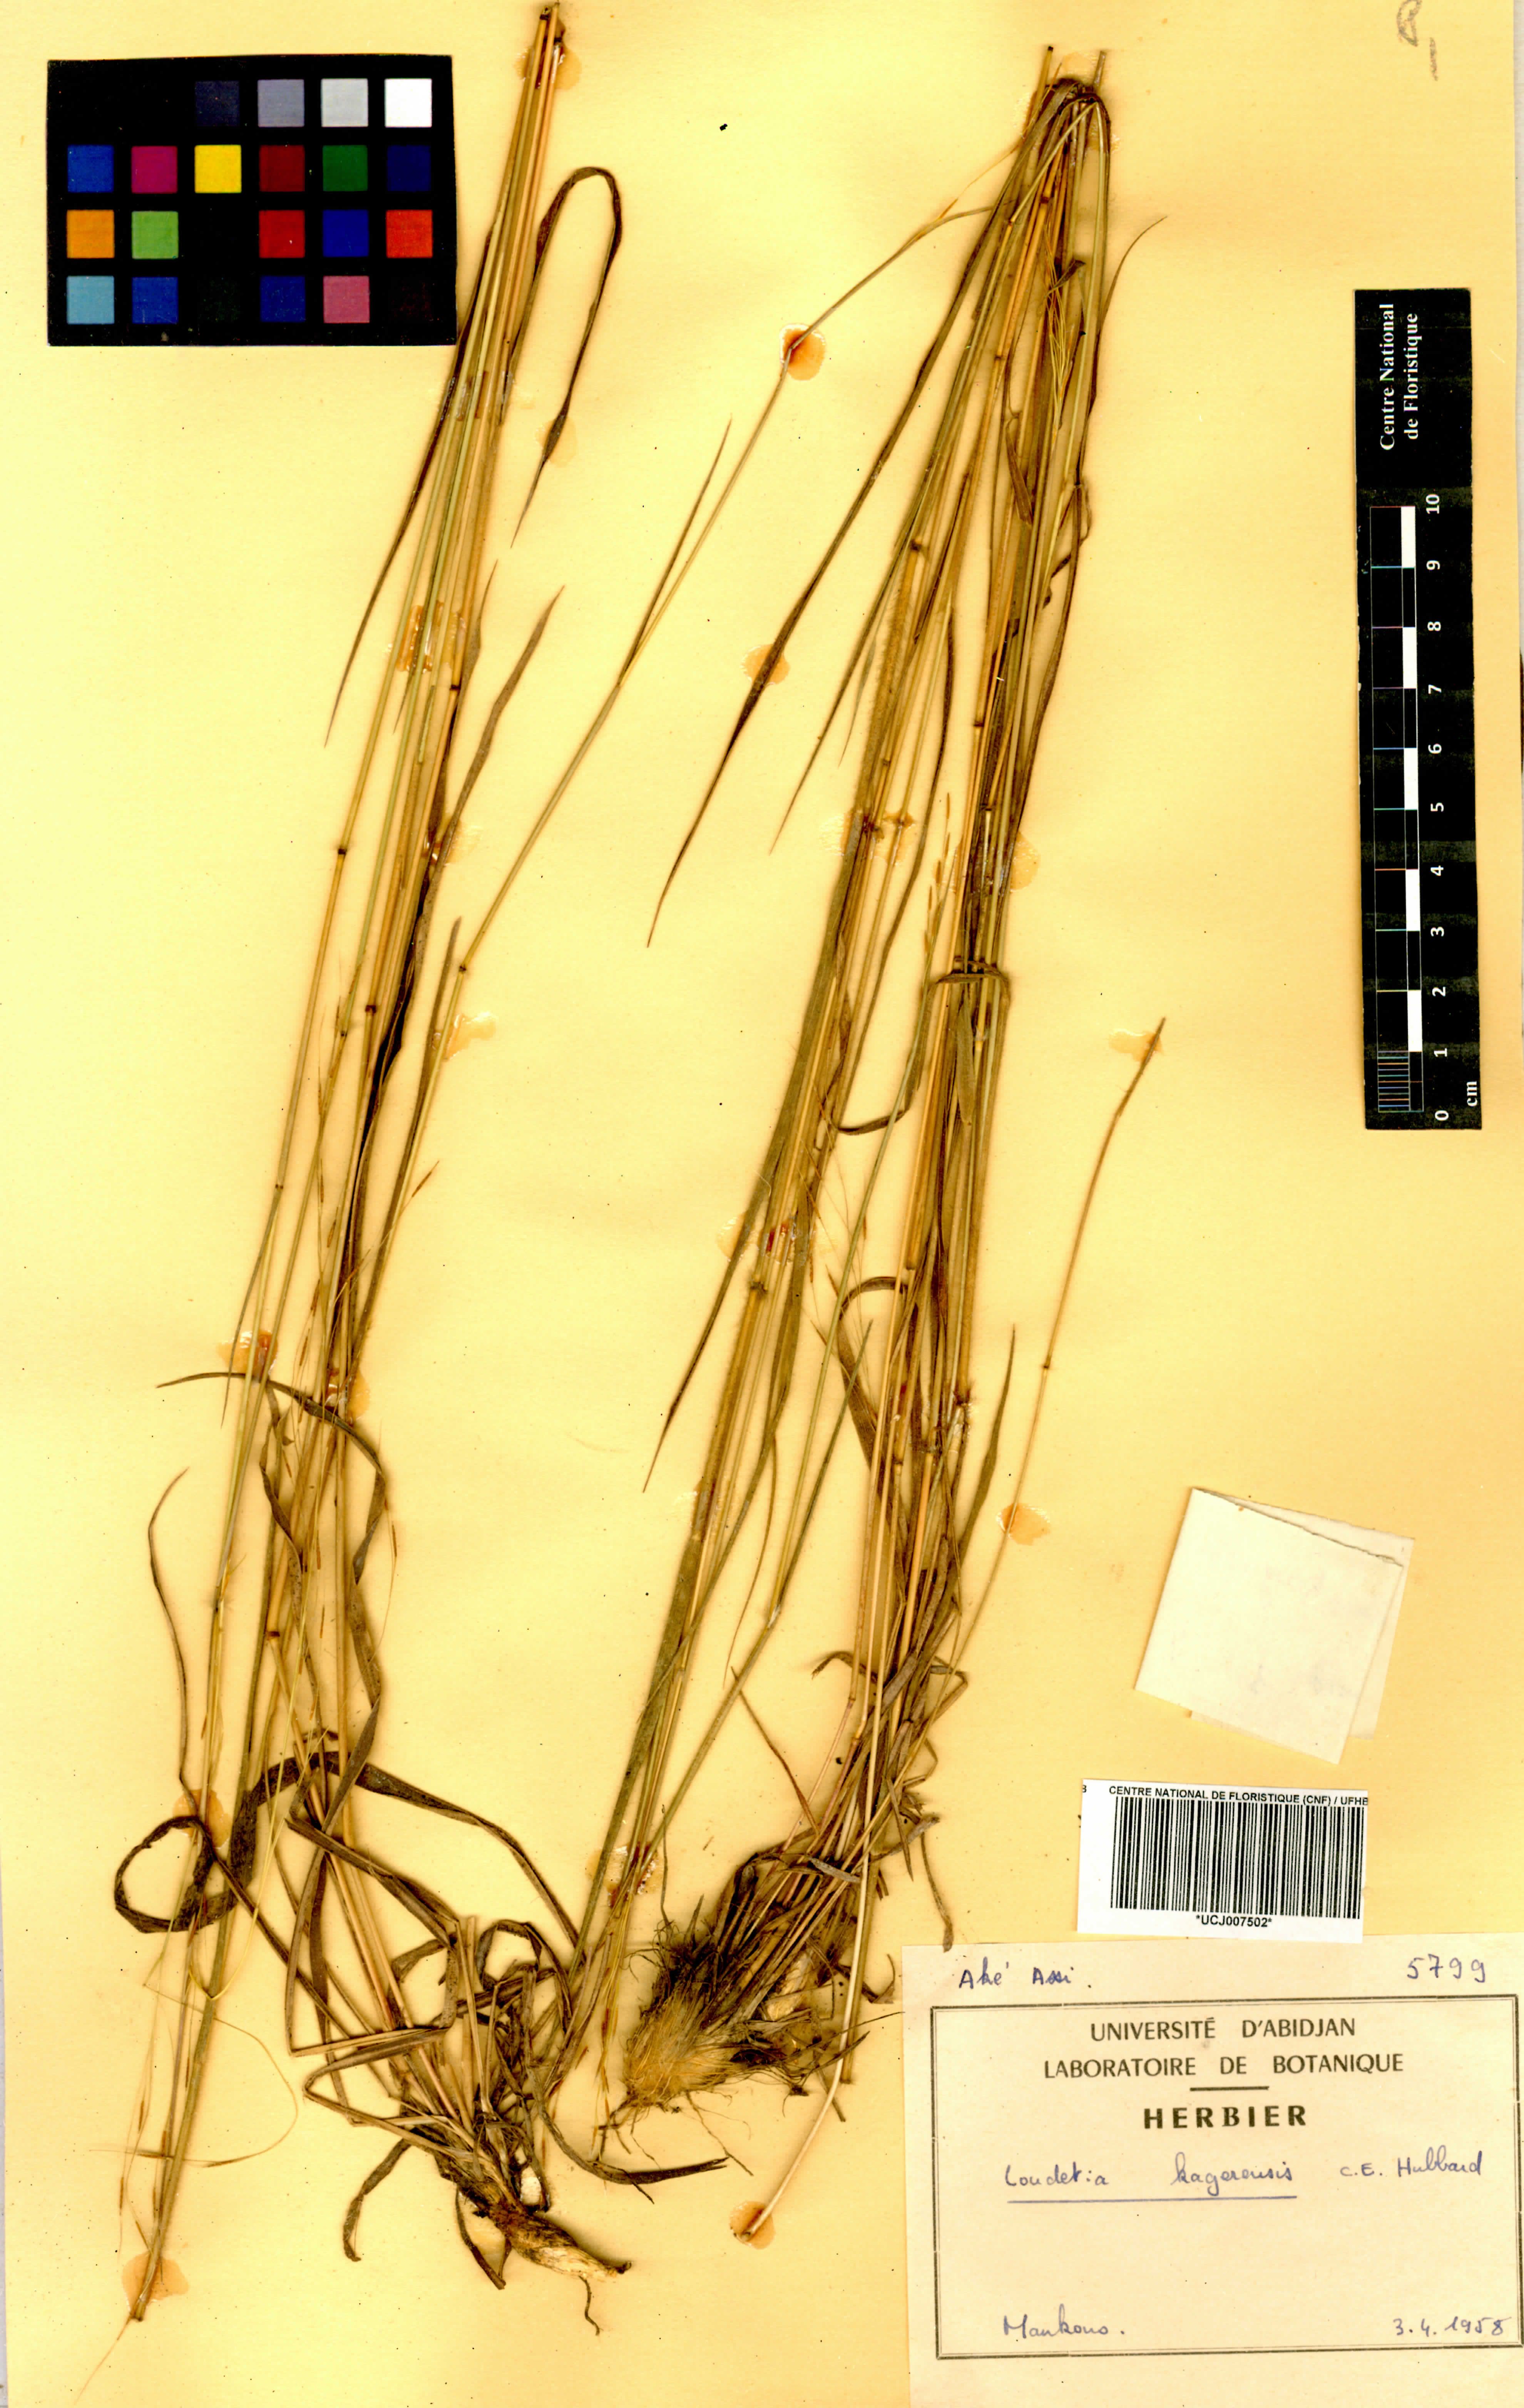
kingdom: Plantae
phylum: Tracheophyta
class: Liliopsida
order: Poales
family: Poaceae
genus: Loudetia
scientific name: Loudetia kagerensis
